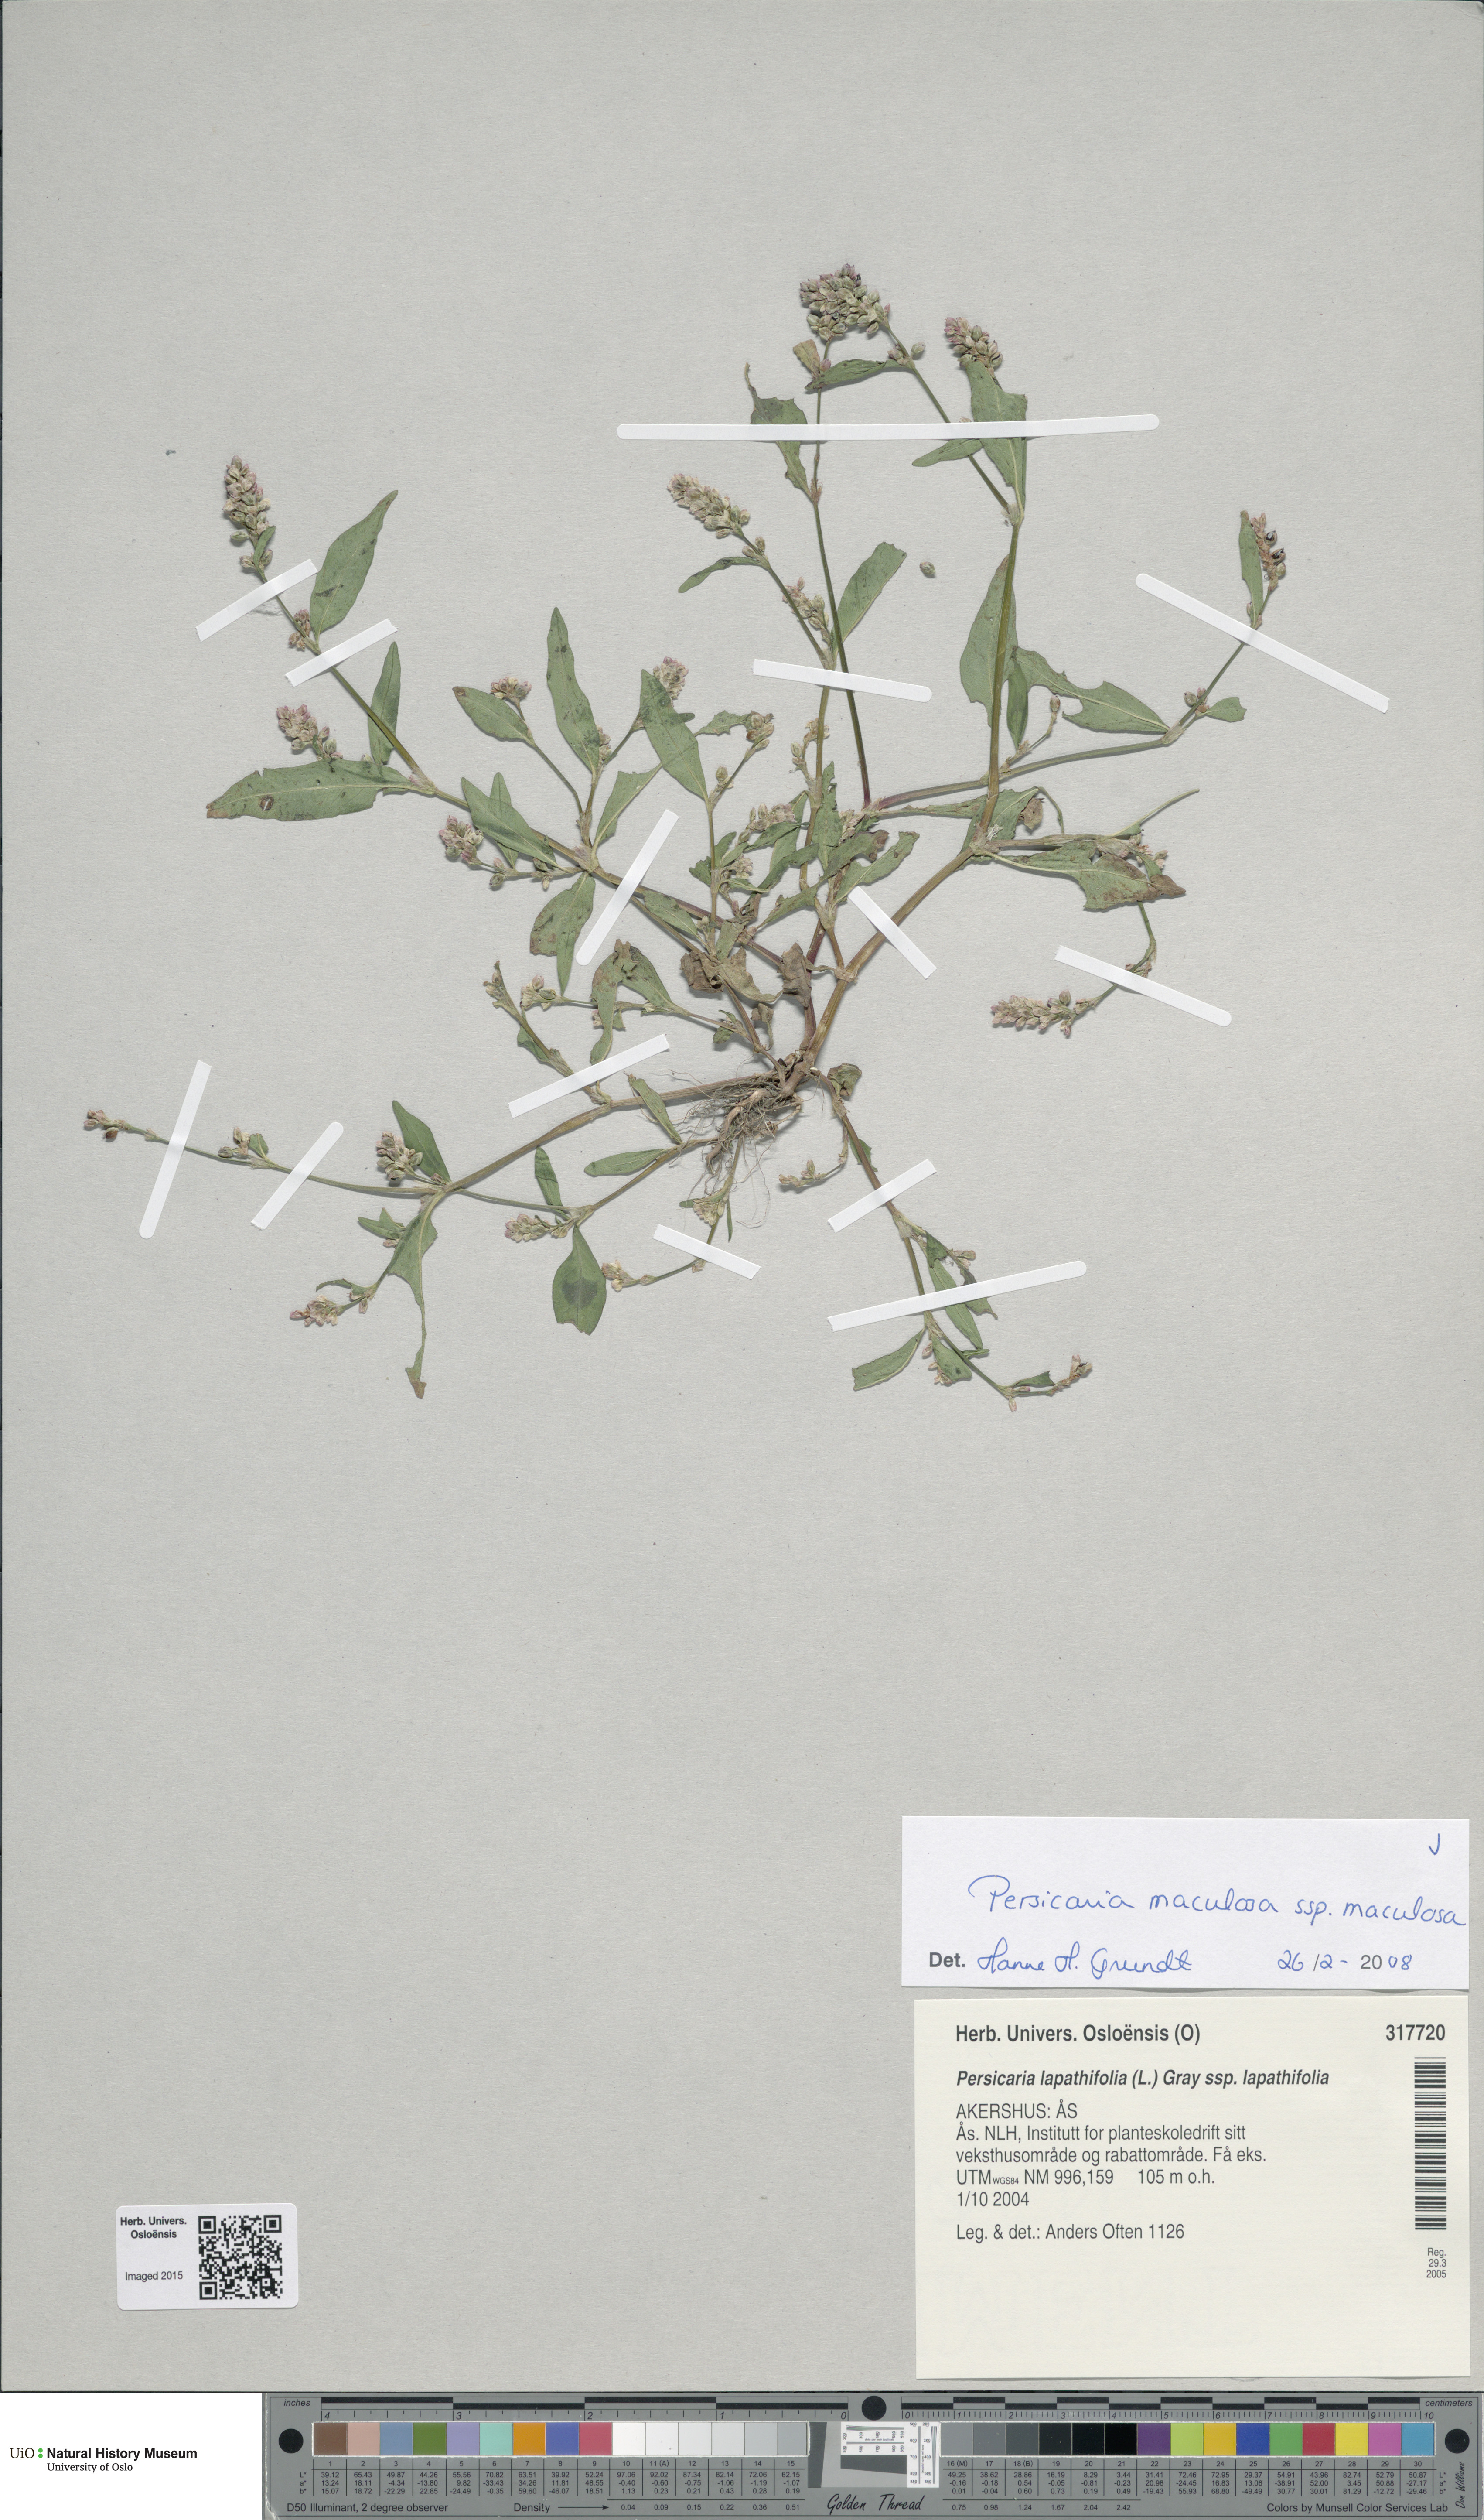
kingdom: Plantae
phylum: Tracheophyta
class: Magnoliopsida
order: Caryophyllales
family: Polygonaceae
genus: Persicaria
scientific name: Persicaria maculosa
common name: Redshank
